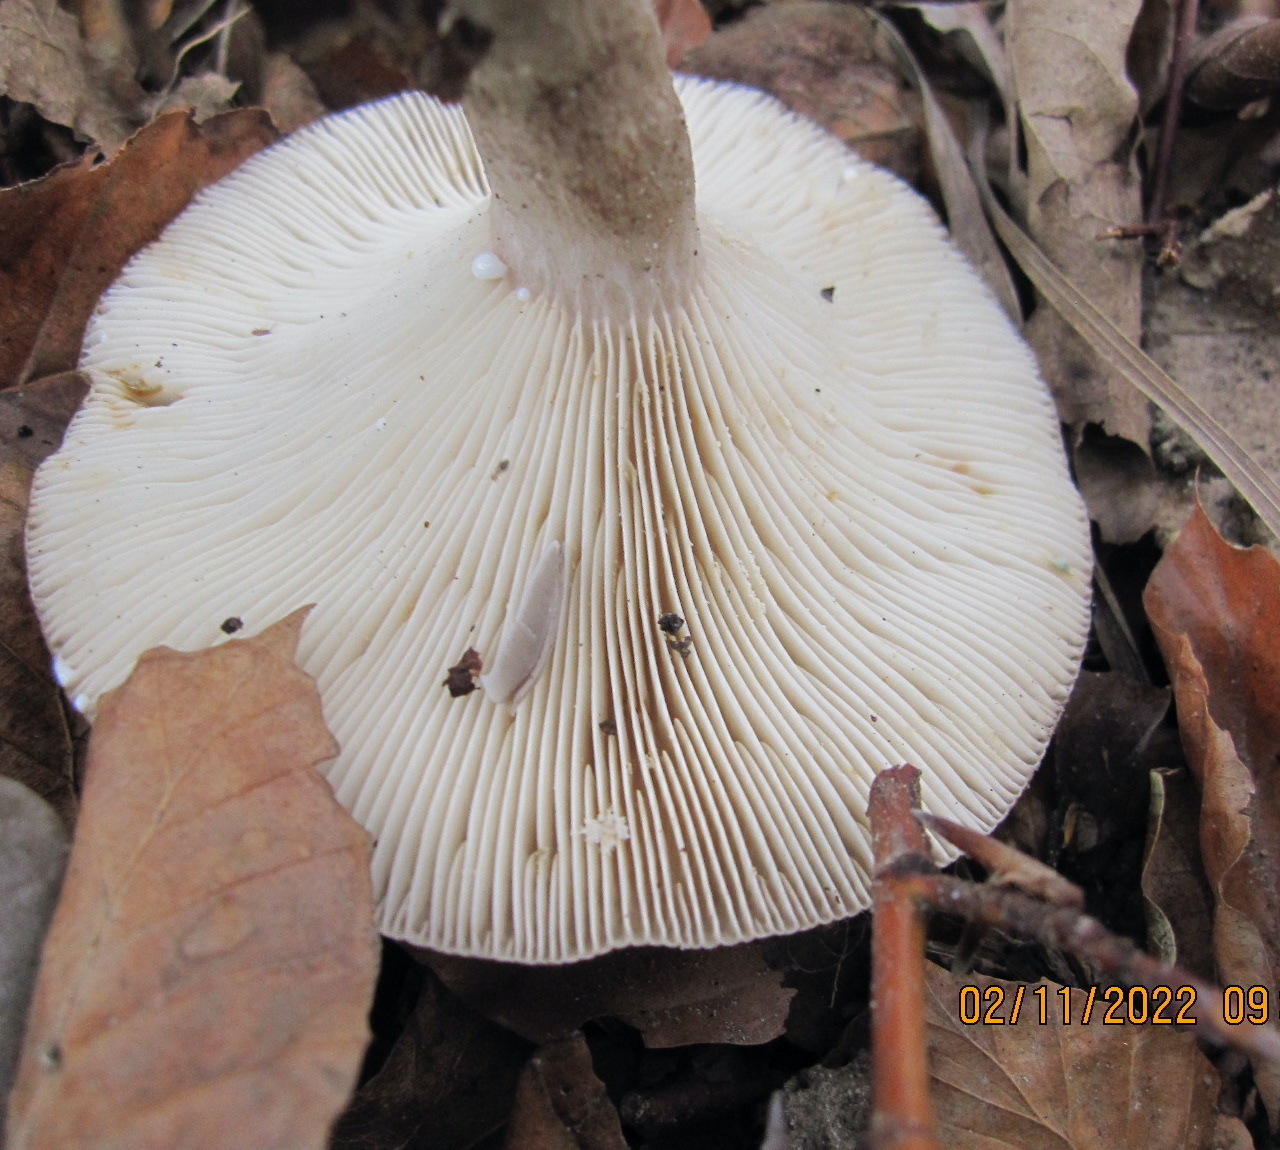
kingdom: Fungi
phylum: Basidiomycota
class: Agaricomycetes
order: Russulales
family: Russulaceae
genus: Lactarius
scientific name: Lactarius blennius
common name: dråbeplettet mælkehat
